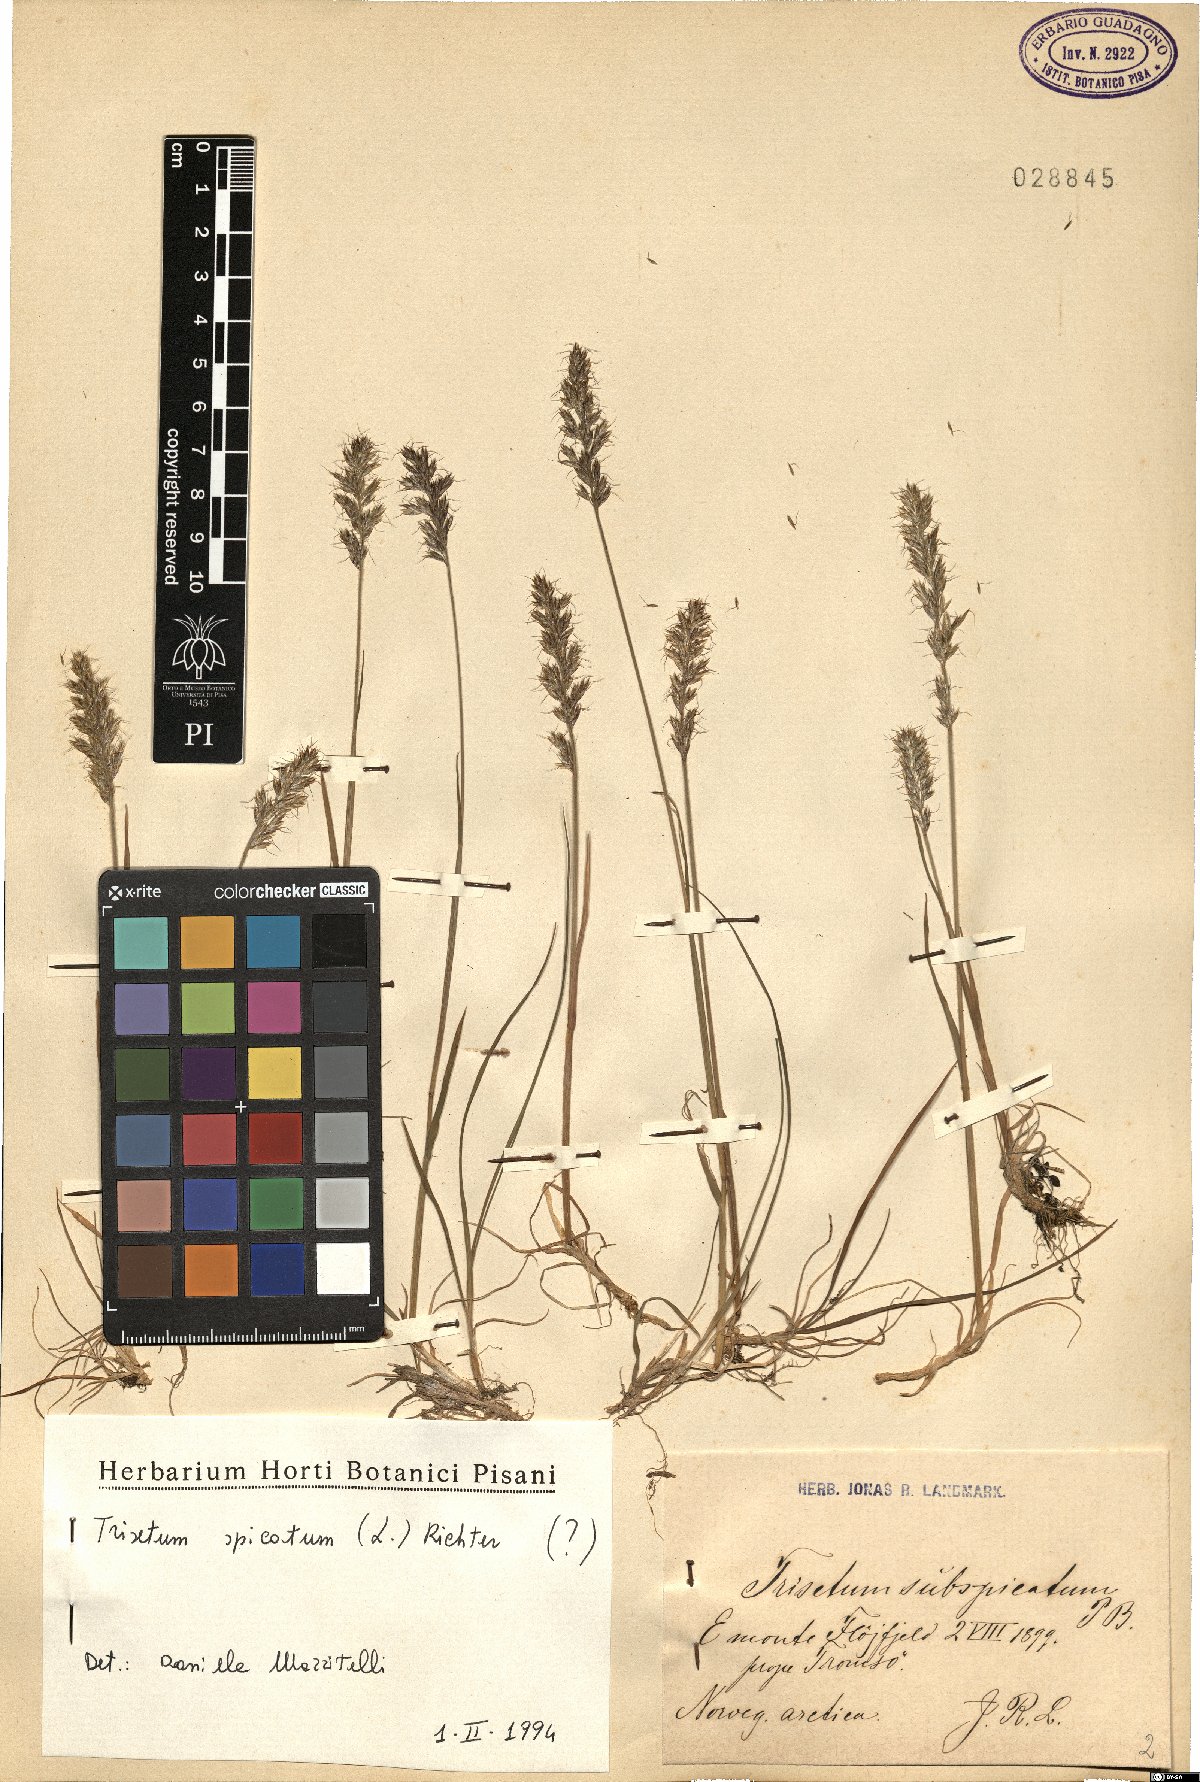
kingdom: Plantae
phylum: Tracheophyta
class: Liliopsida
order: Poales
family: Poaceae
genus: Koeleria
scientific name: Koeleria spicata
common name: Mountain trisetum
